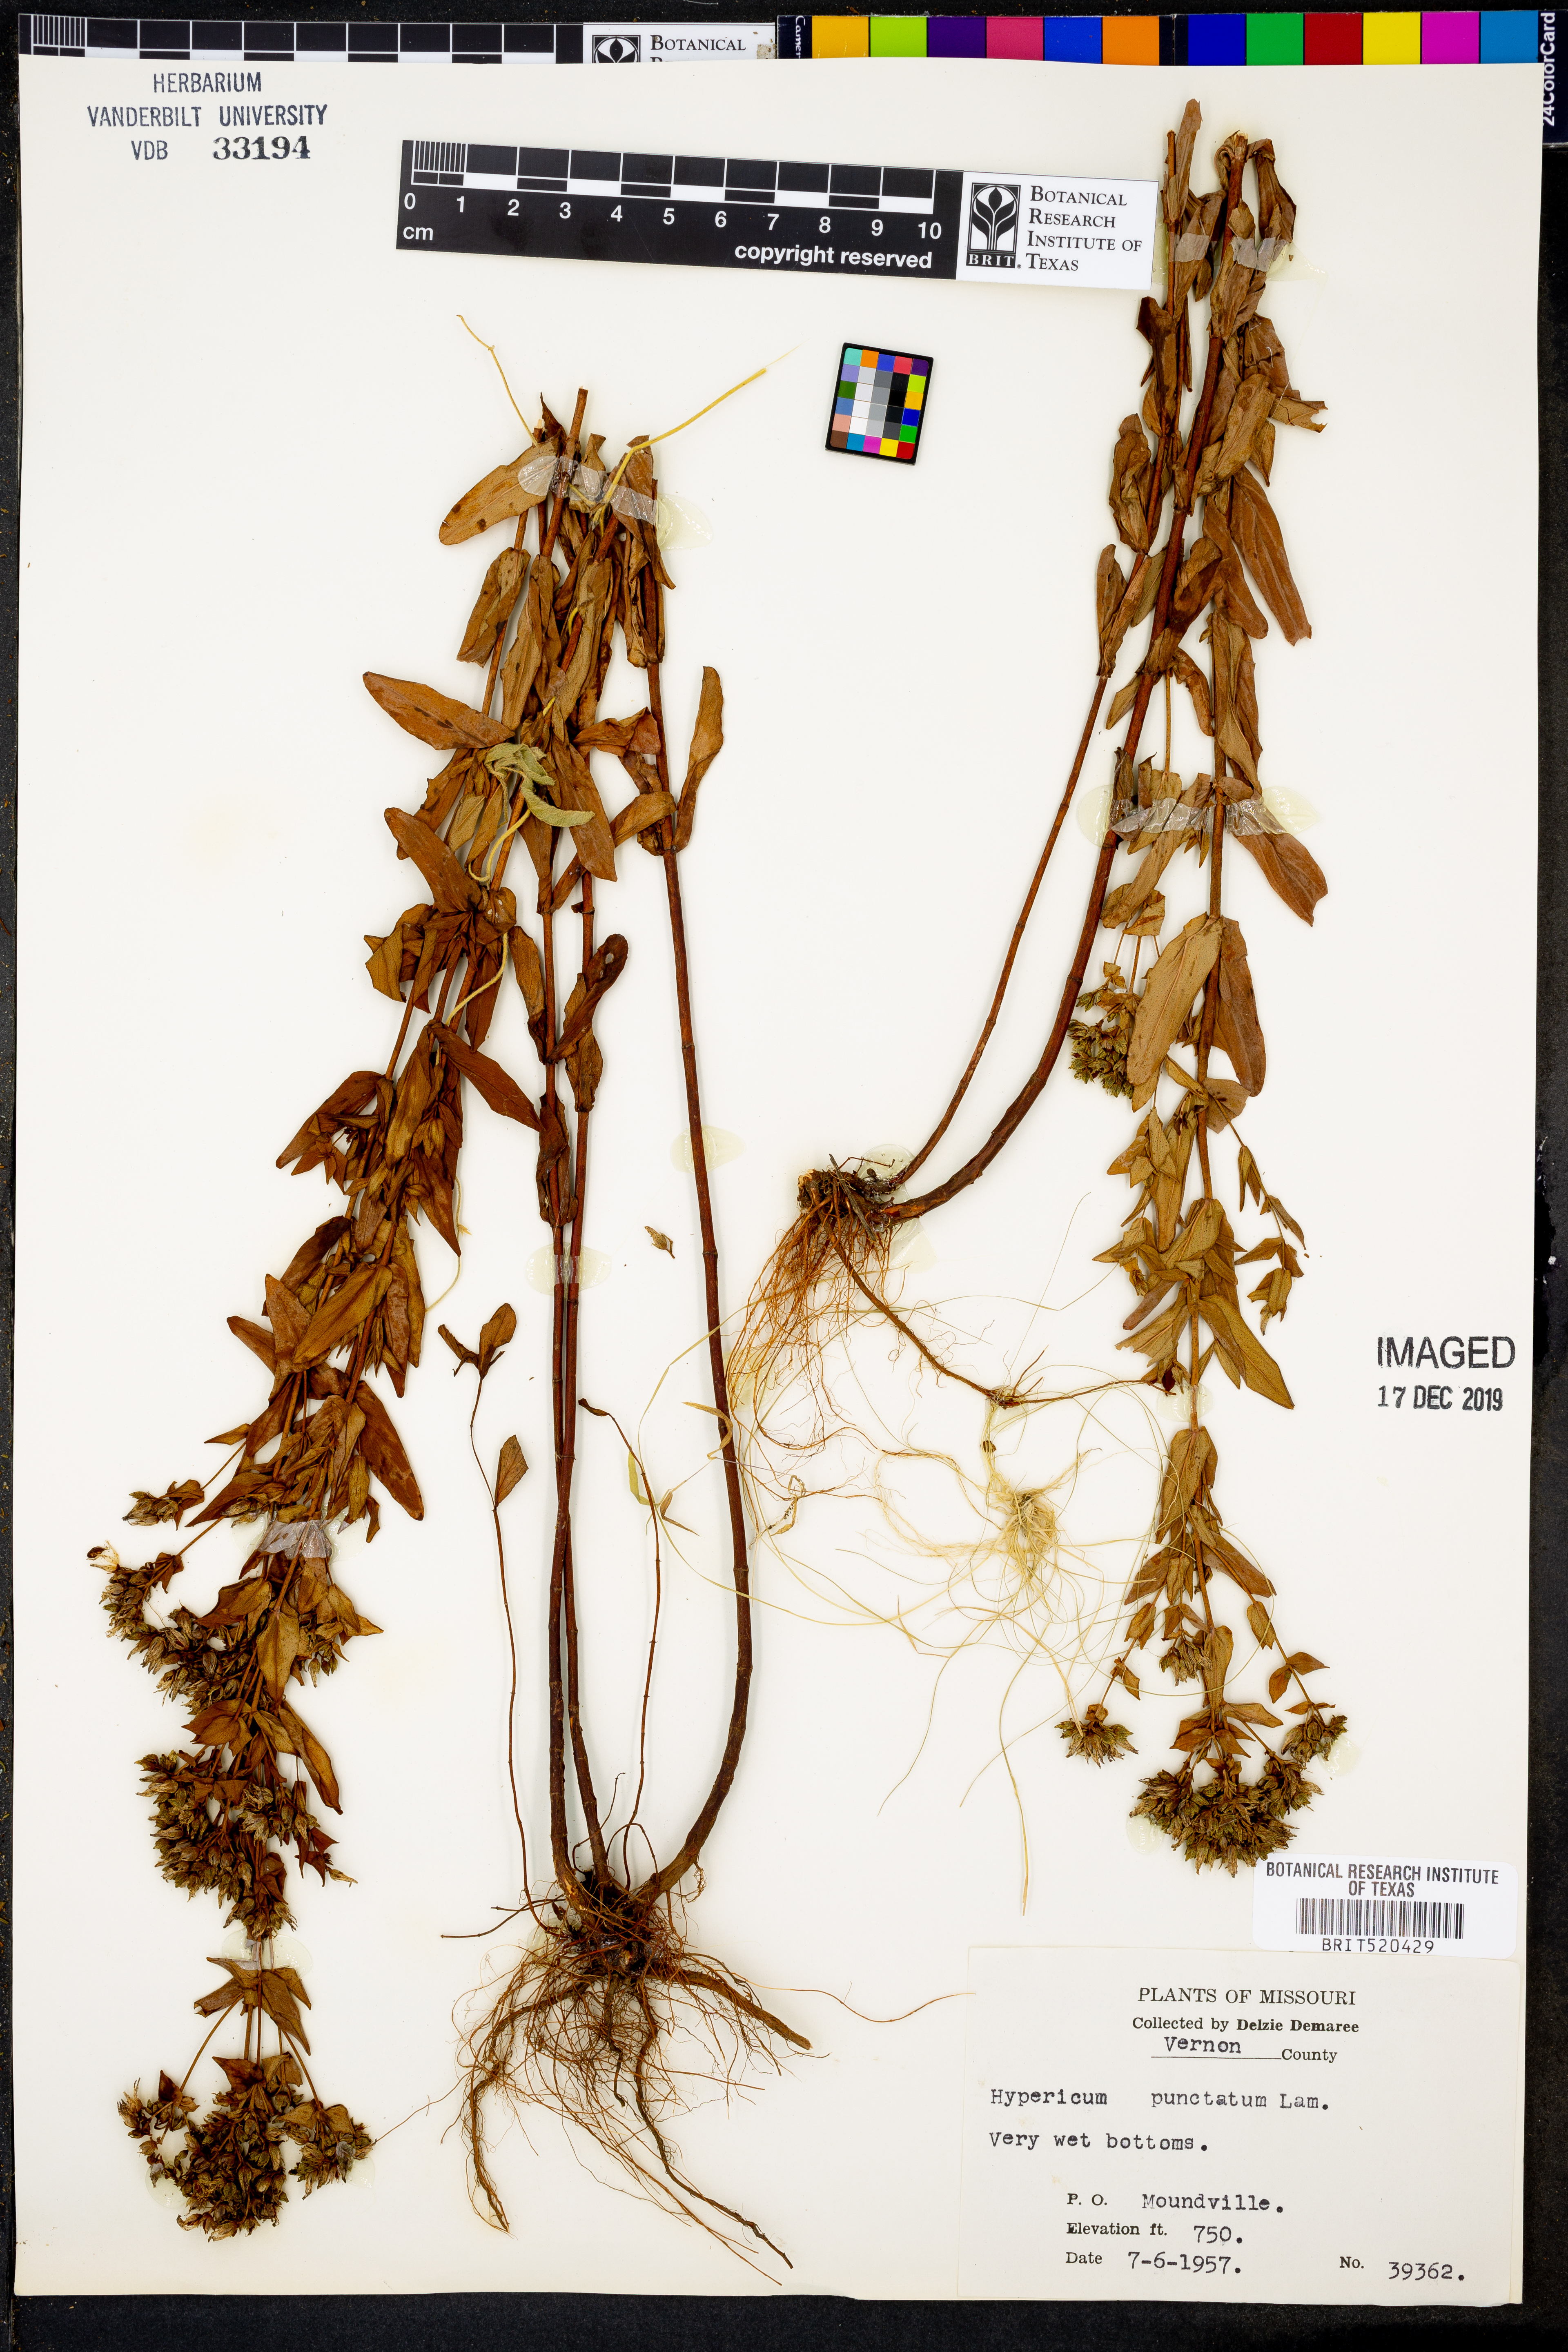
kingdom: Plantae
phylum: Tracheophyta
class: Magnoliopsida
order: Malpighiales
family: Hypericaceae
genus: Hypericum
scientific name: Hypericum punctatum
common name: Spotted st. john's-wort
